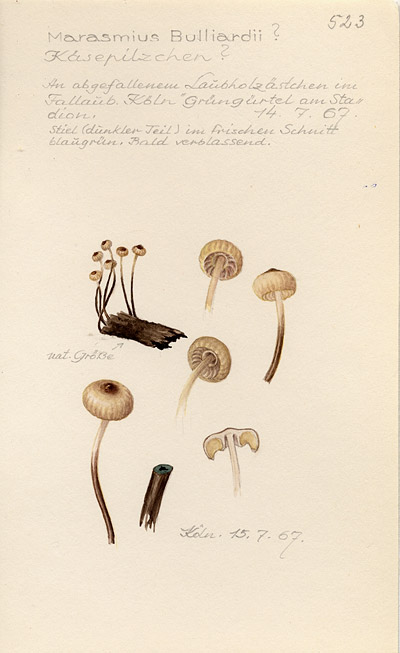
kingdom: Fungi
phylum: Basidiomycota
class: Agaricomycetes
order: Agaricales
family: Marasmiaceae
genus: Marasmius
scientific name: Marasmius bulliardii
